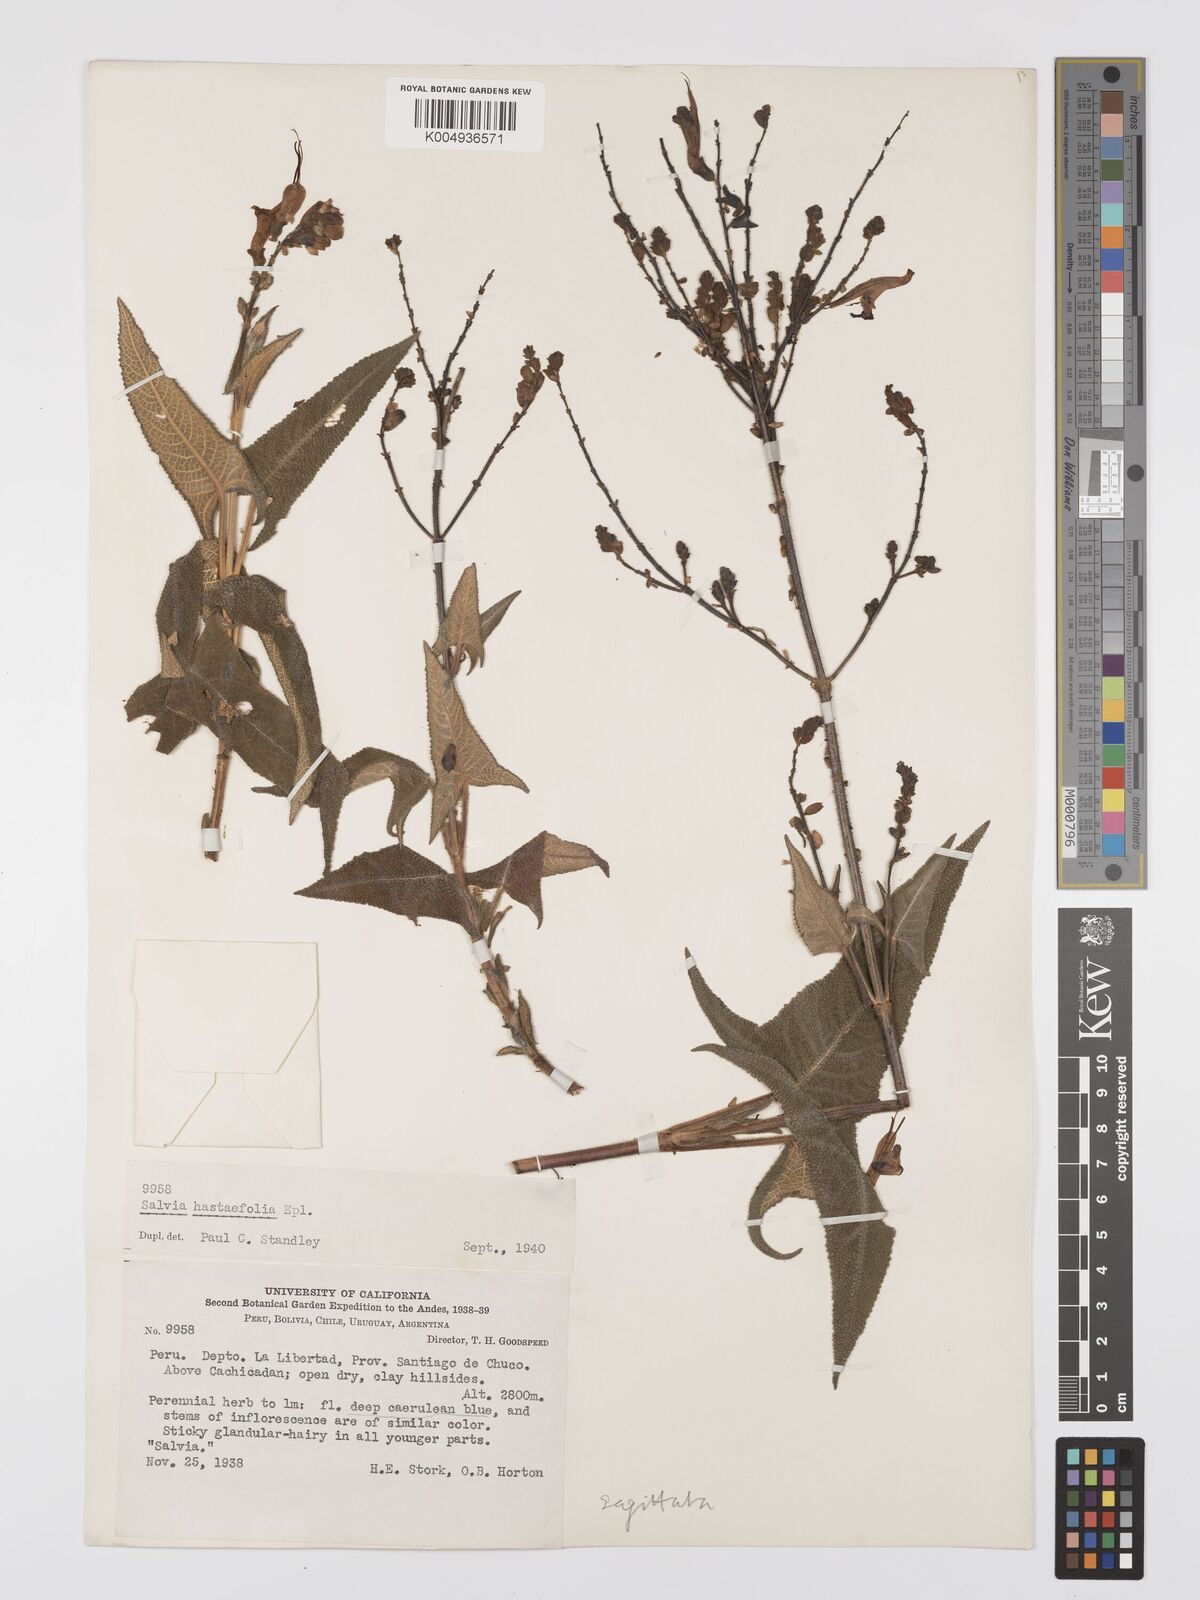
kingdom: Plantae
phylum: Tracheophyta
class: Magnoliopsida
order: Lamiales
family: Lamiaceae
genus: Salvia
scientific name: Salvia sagittata
